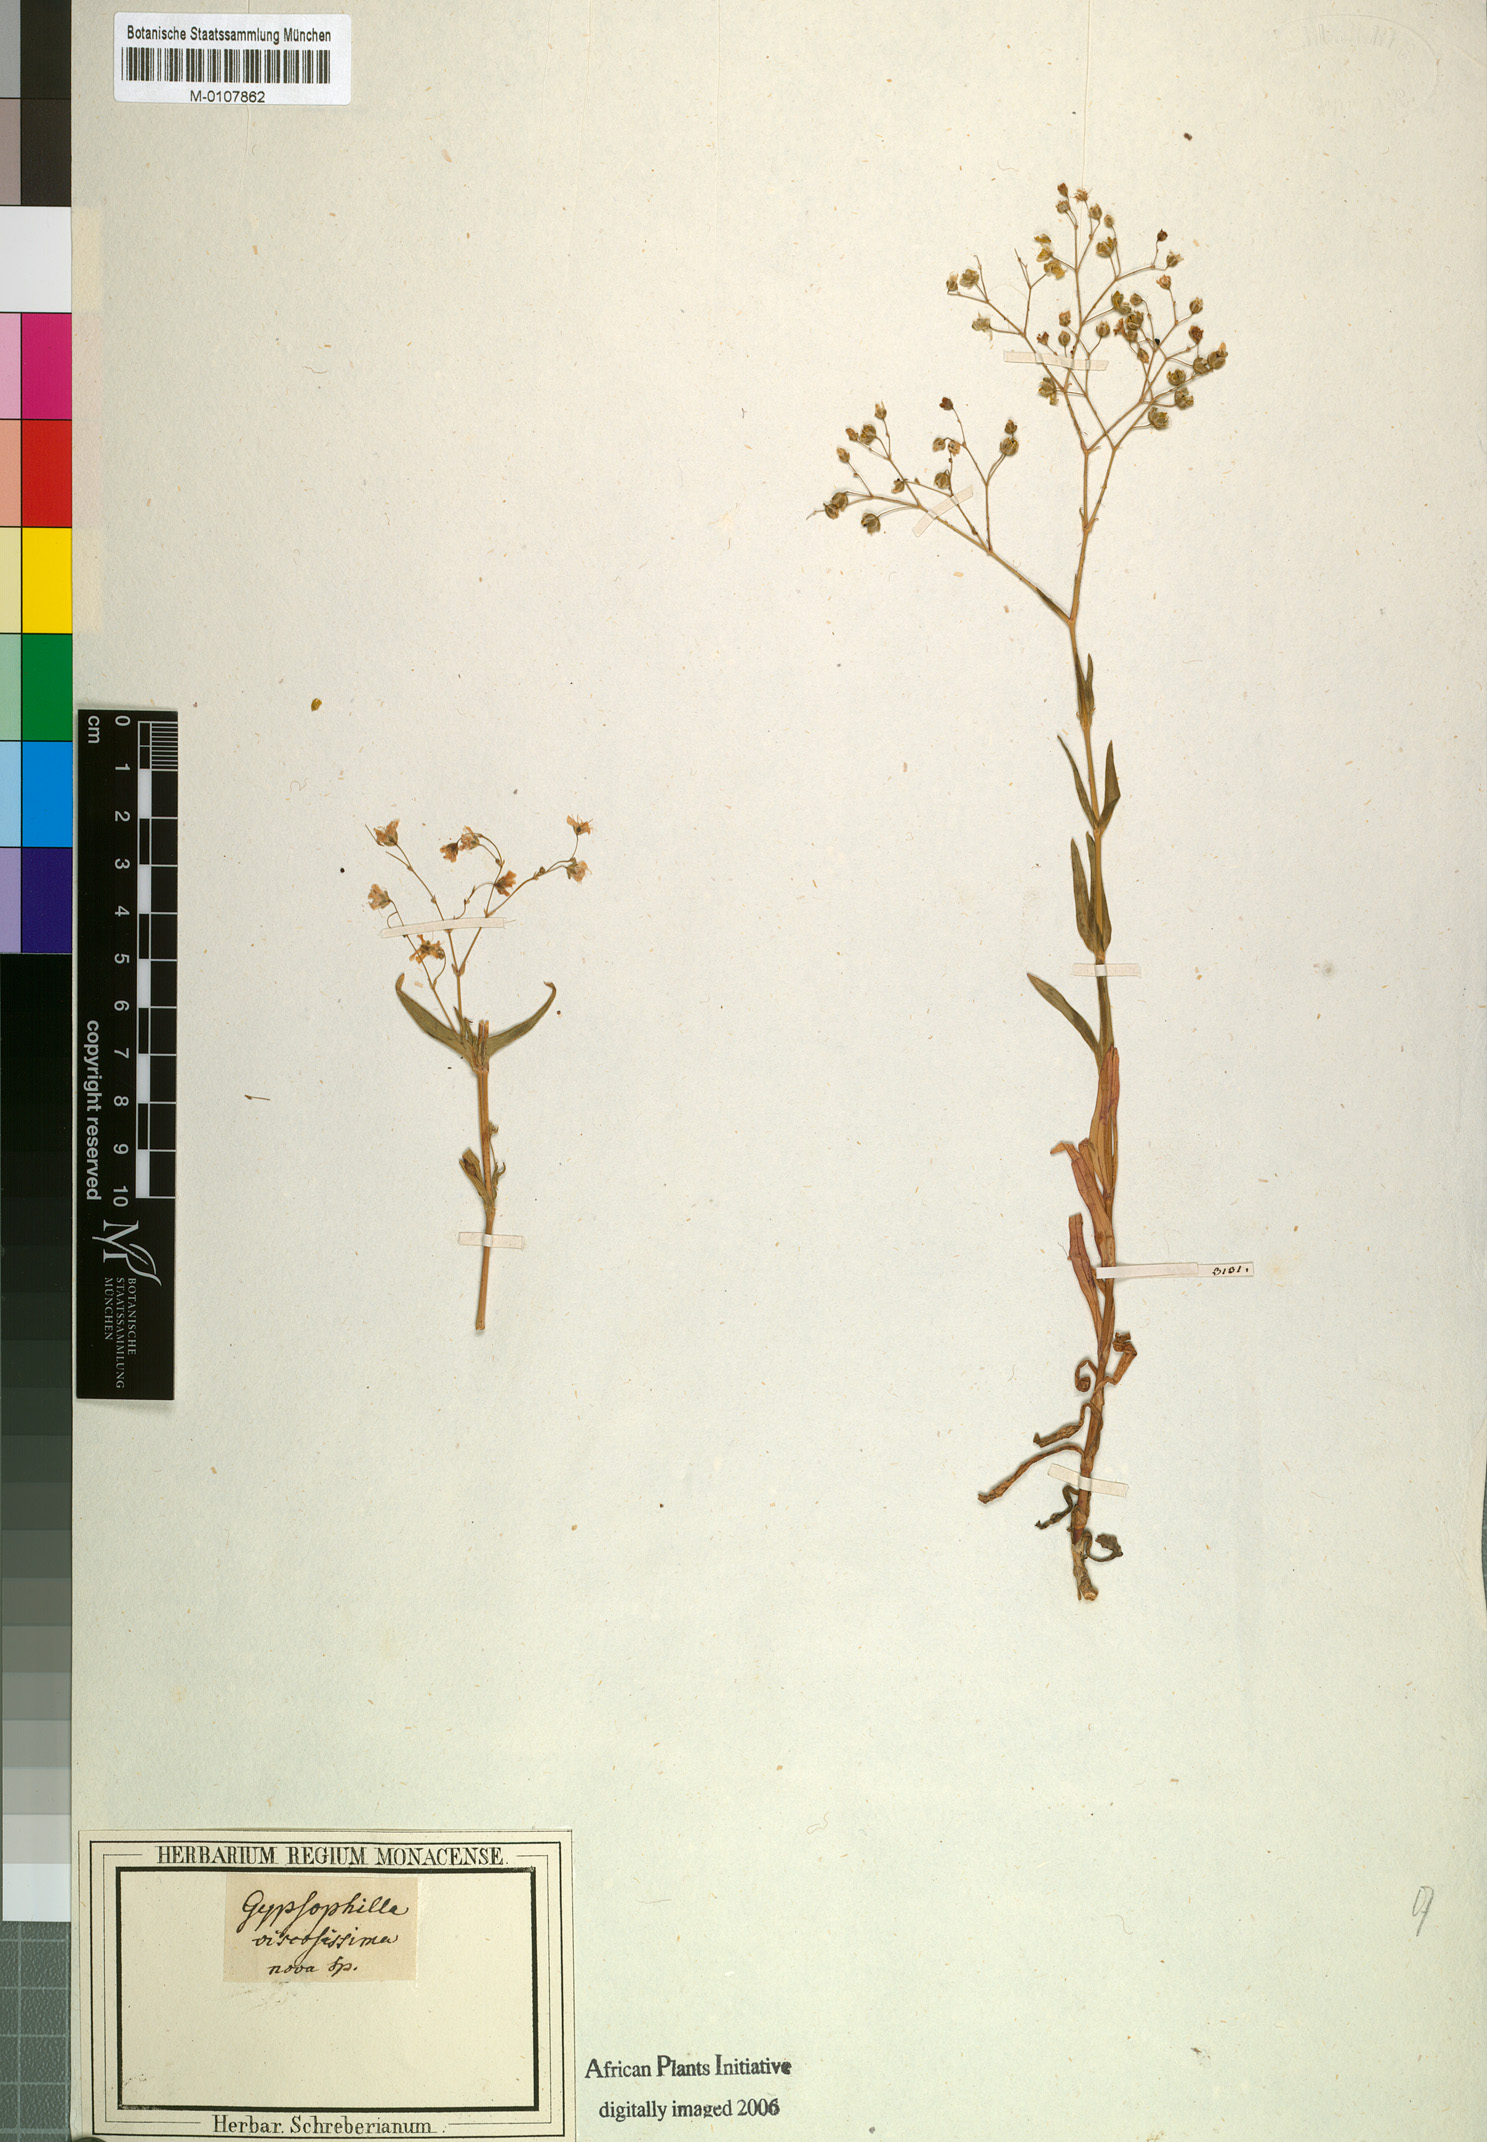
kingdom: Plantae
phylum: Tracheophyta
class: Magnoliopsida
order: Caryophyllales
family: Caryophyllaceae
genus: Gypsophila
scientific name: Gypsophila viscosa
